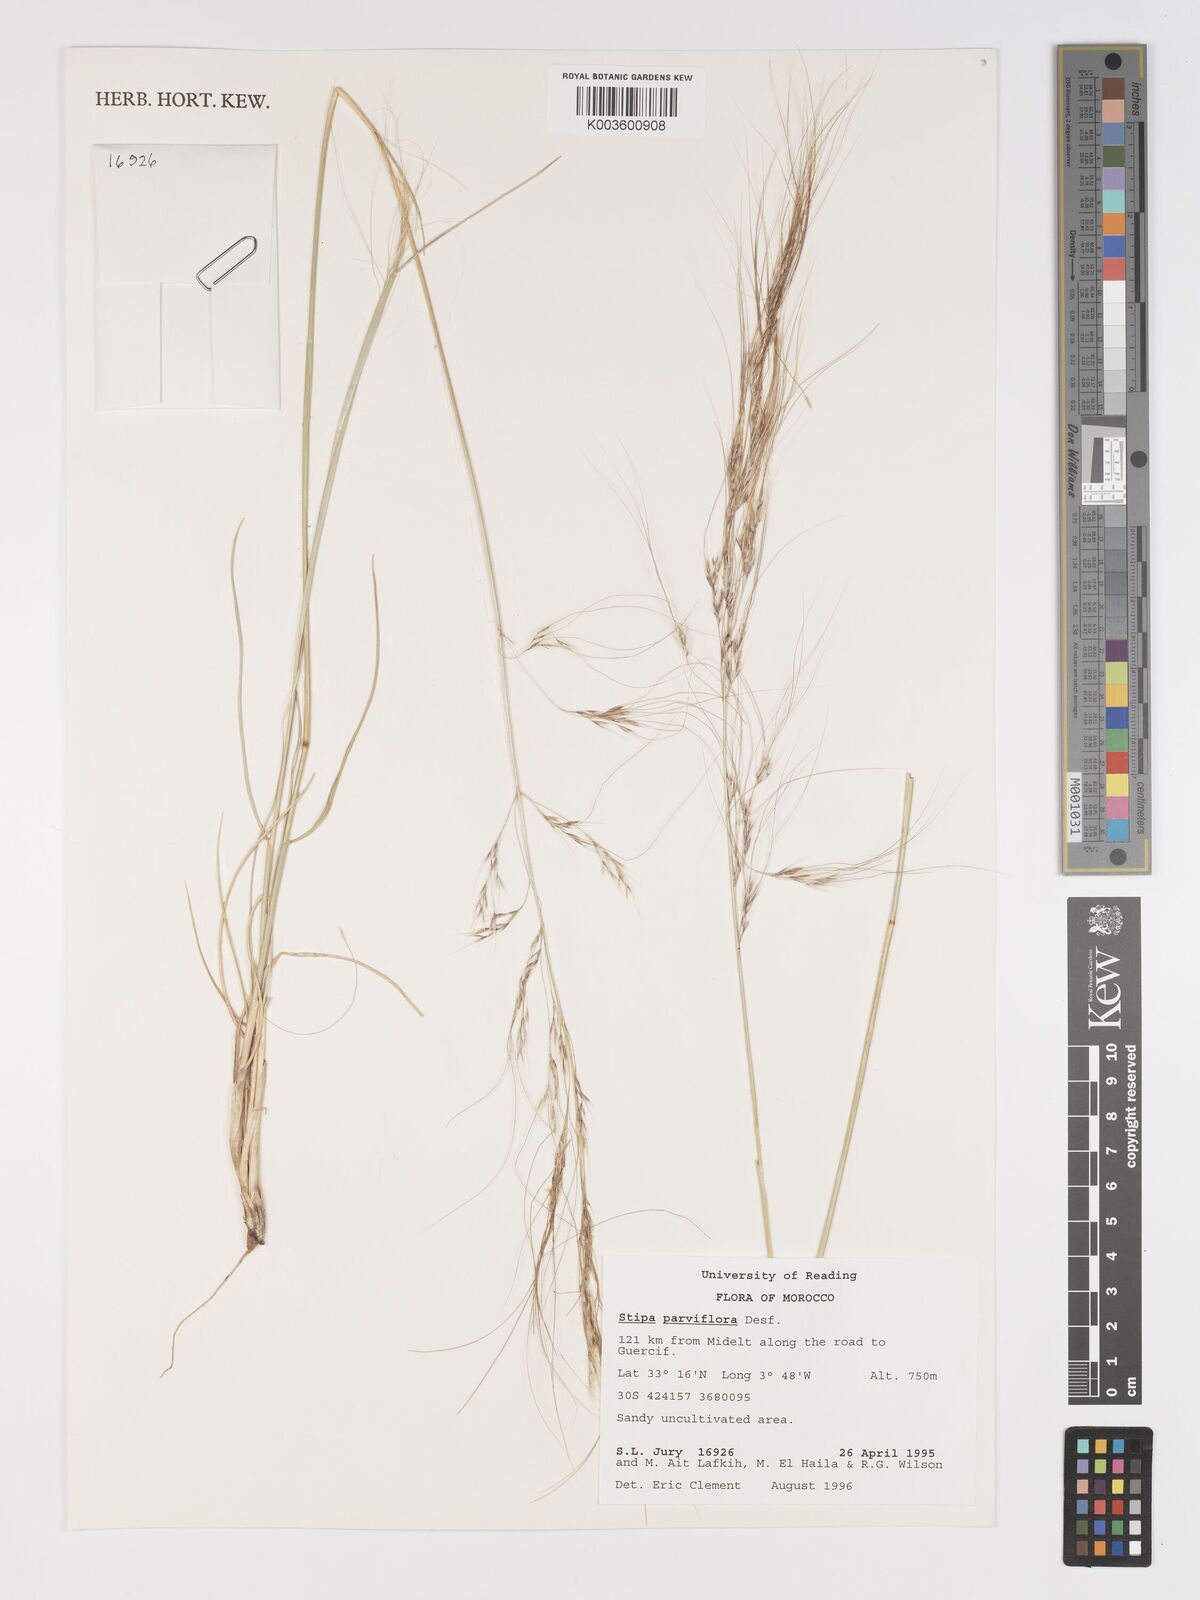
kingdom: Plantae
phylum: Tracheophyta
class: Liliopsida
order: Poales
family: Poaceae
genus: Achnatherum
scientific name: Achnatherum parviflorum
